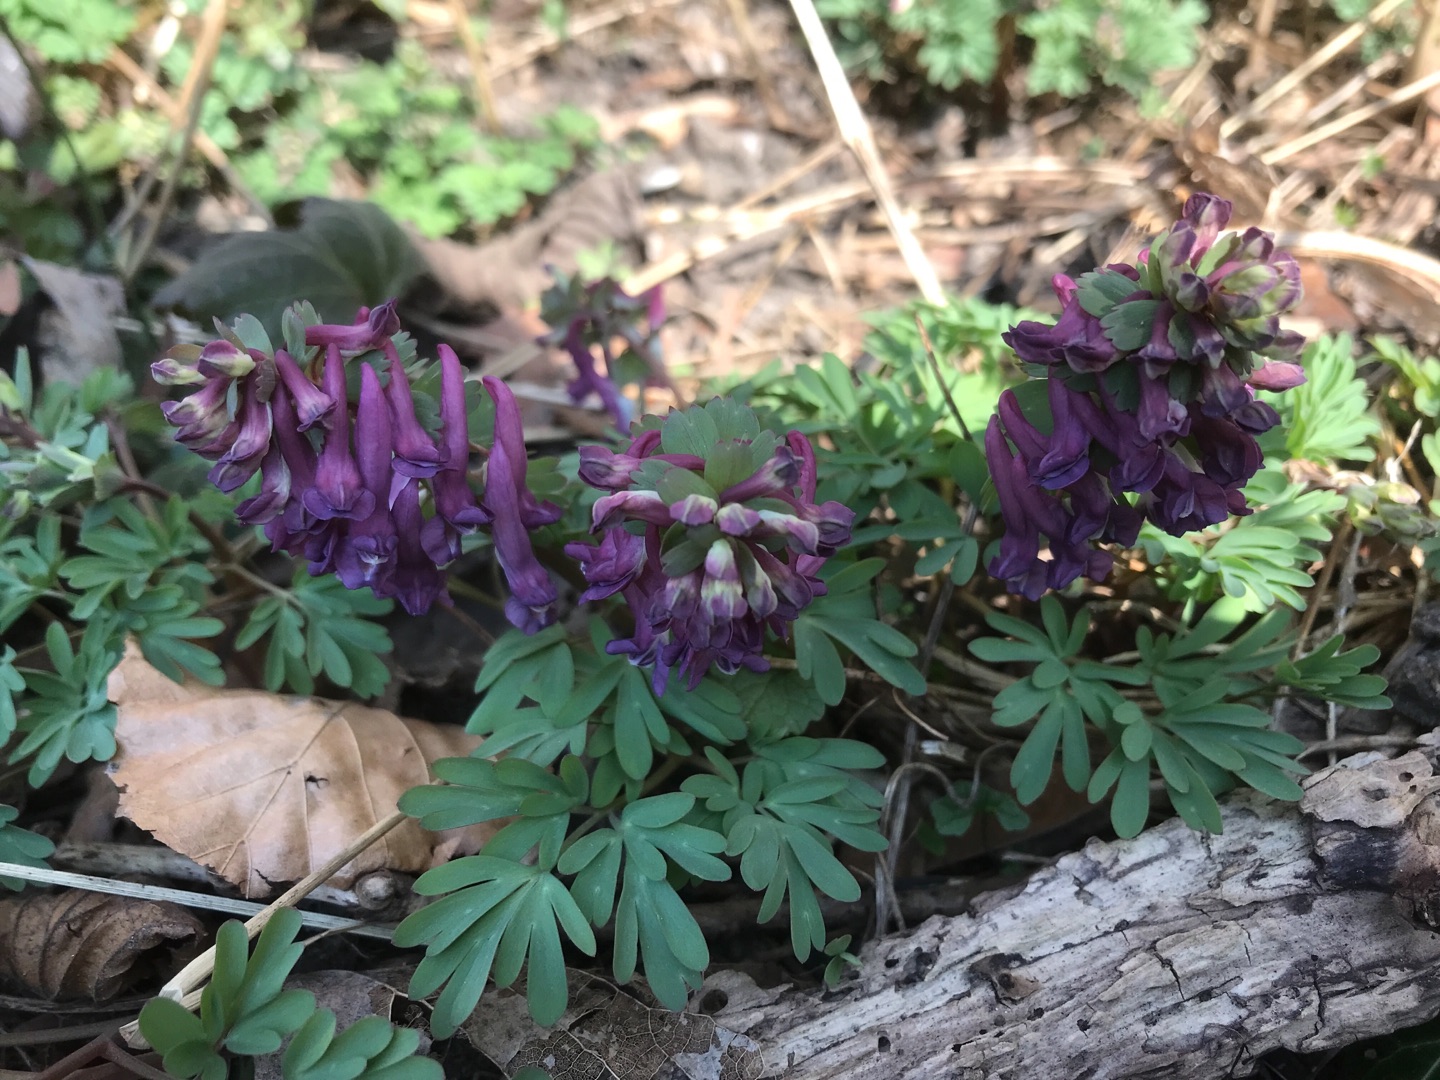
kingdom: Plantae
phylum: Tracheophyta
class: Magnoliopsida
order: Ranunculales
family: Papaveraceae
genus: Corydalis
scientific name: Corydalis solida
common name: Langstilket lærkespore
